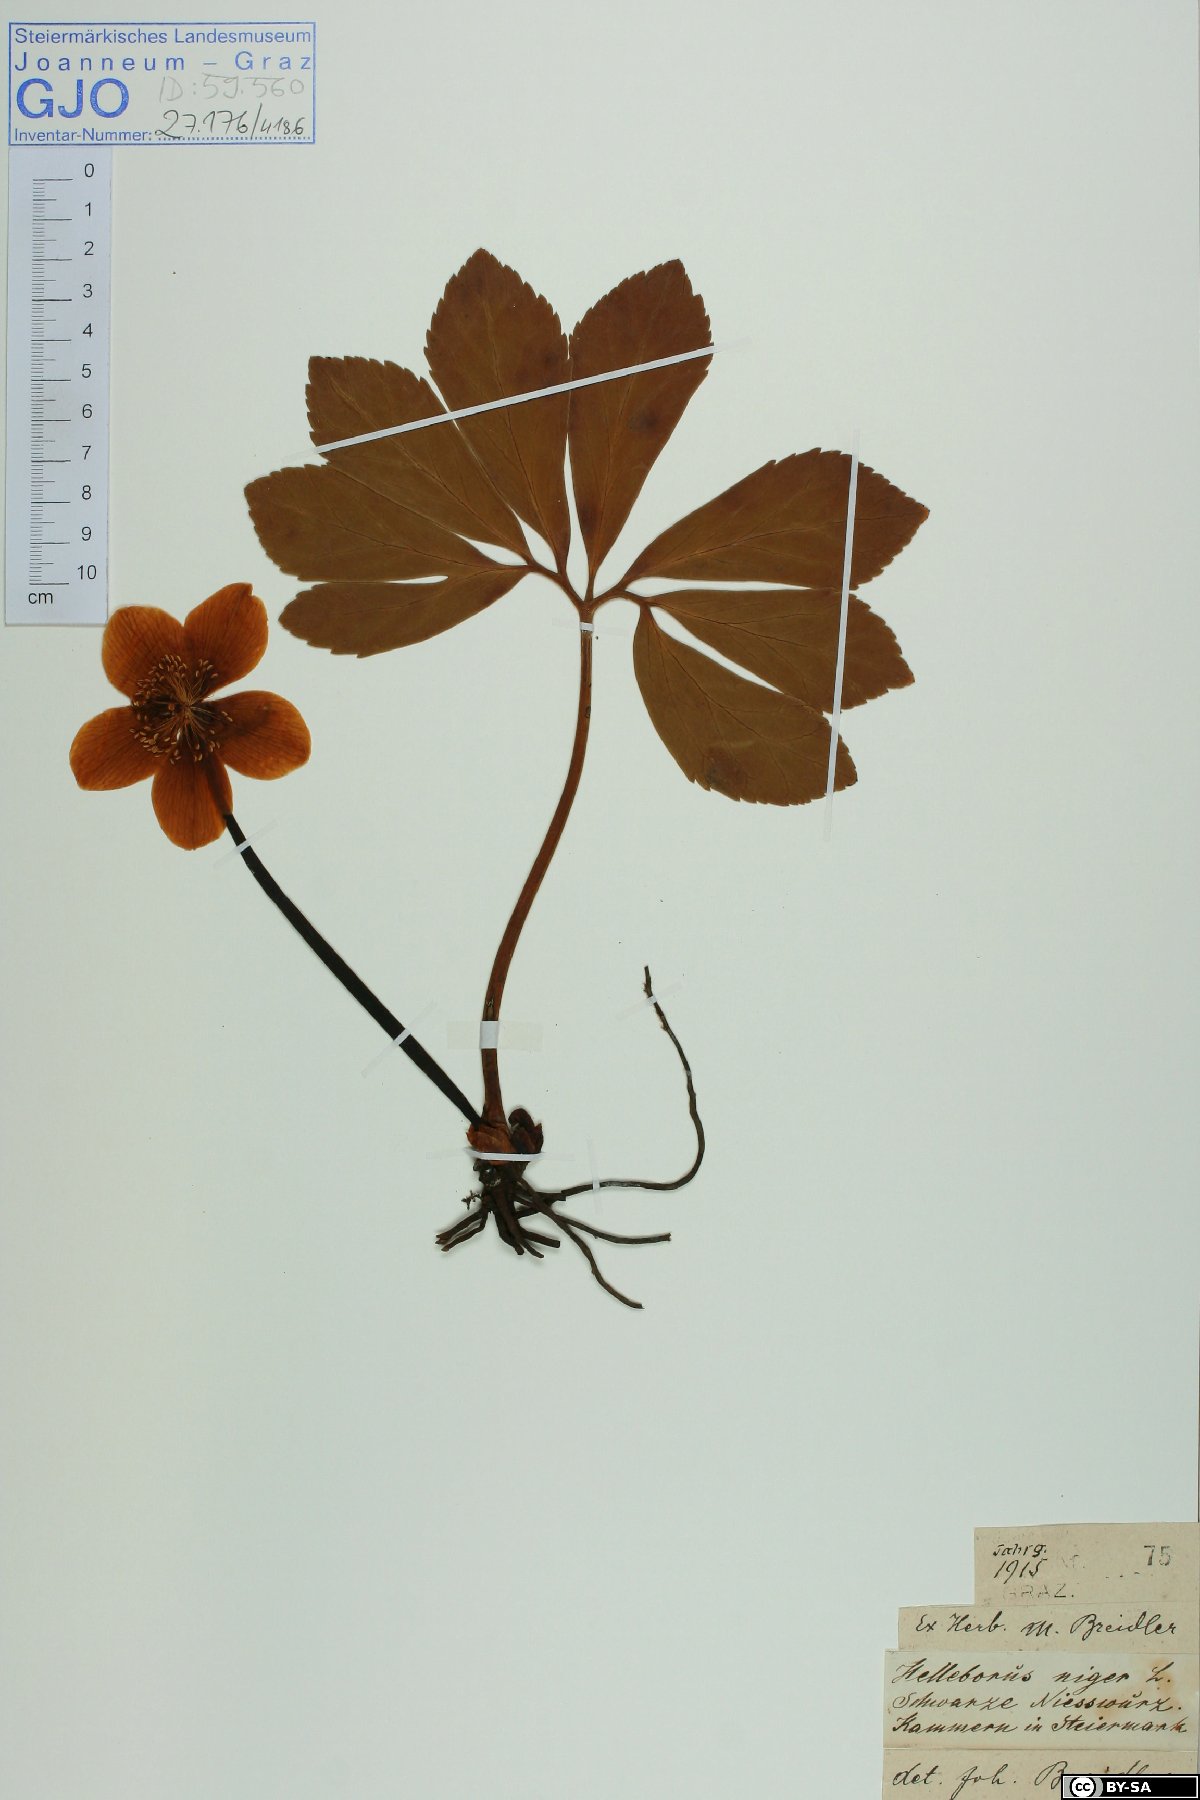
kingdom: Plantae
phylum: Tracheophyta
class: Magnoliopsida
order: Ranunculales
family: Ranunculaceae
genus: Helleborus
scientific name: Helleborus niger
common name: Black hellebore
